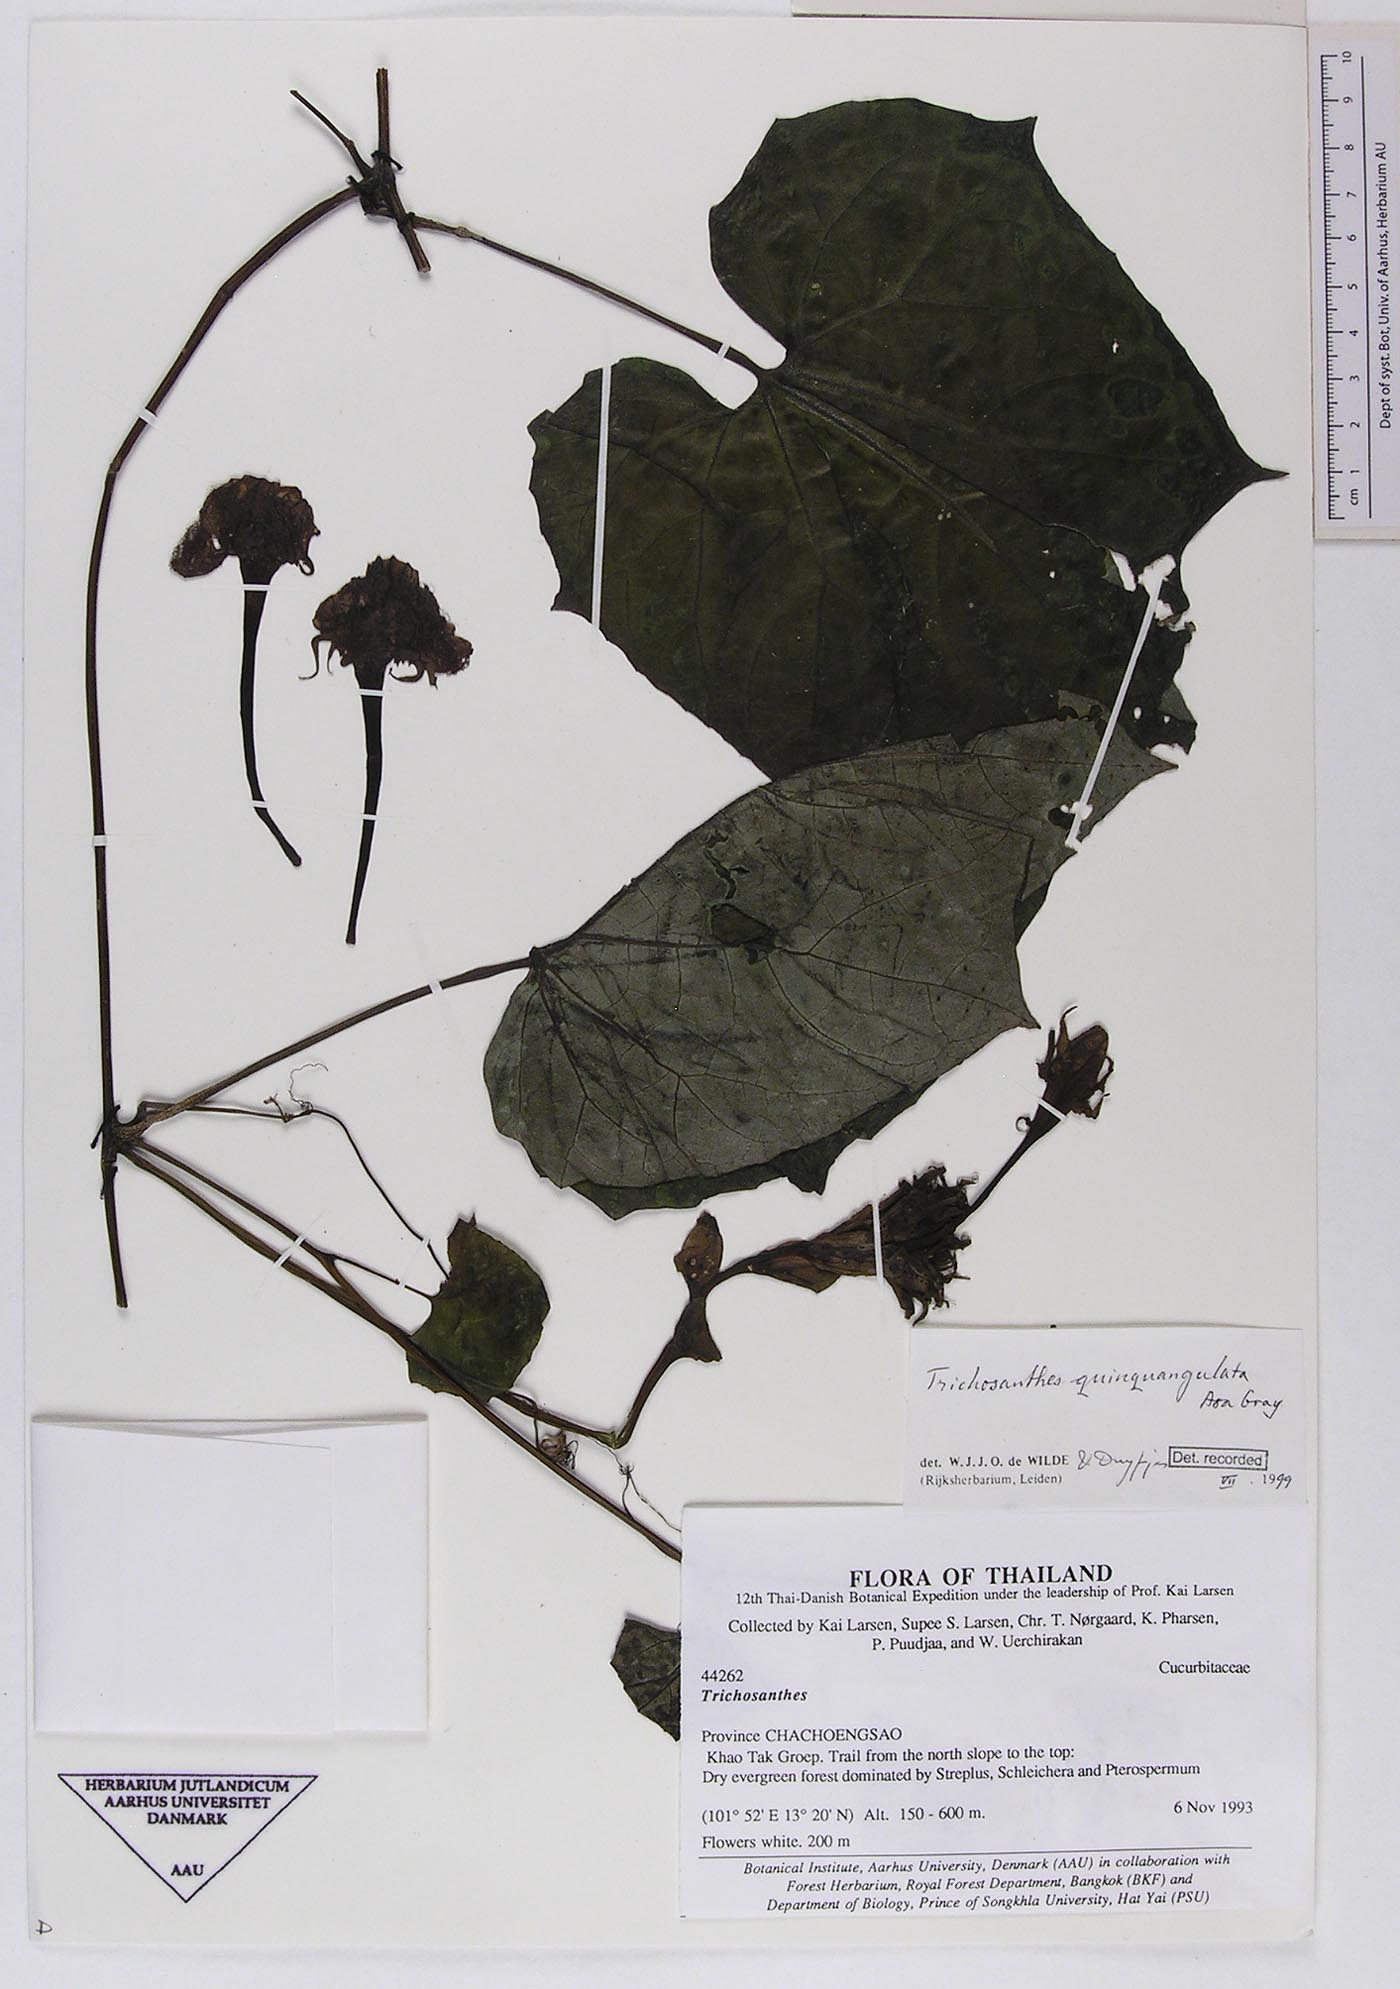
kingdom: Plantae
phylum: Tracheophyta
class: Magnoliopsida
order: Cucurbitales
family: Cucurbitaceae
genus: Trichosanthes
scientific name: Trichosanthes quinquangulata
